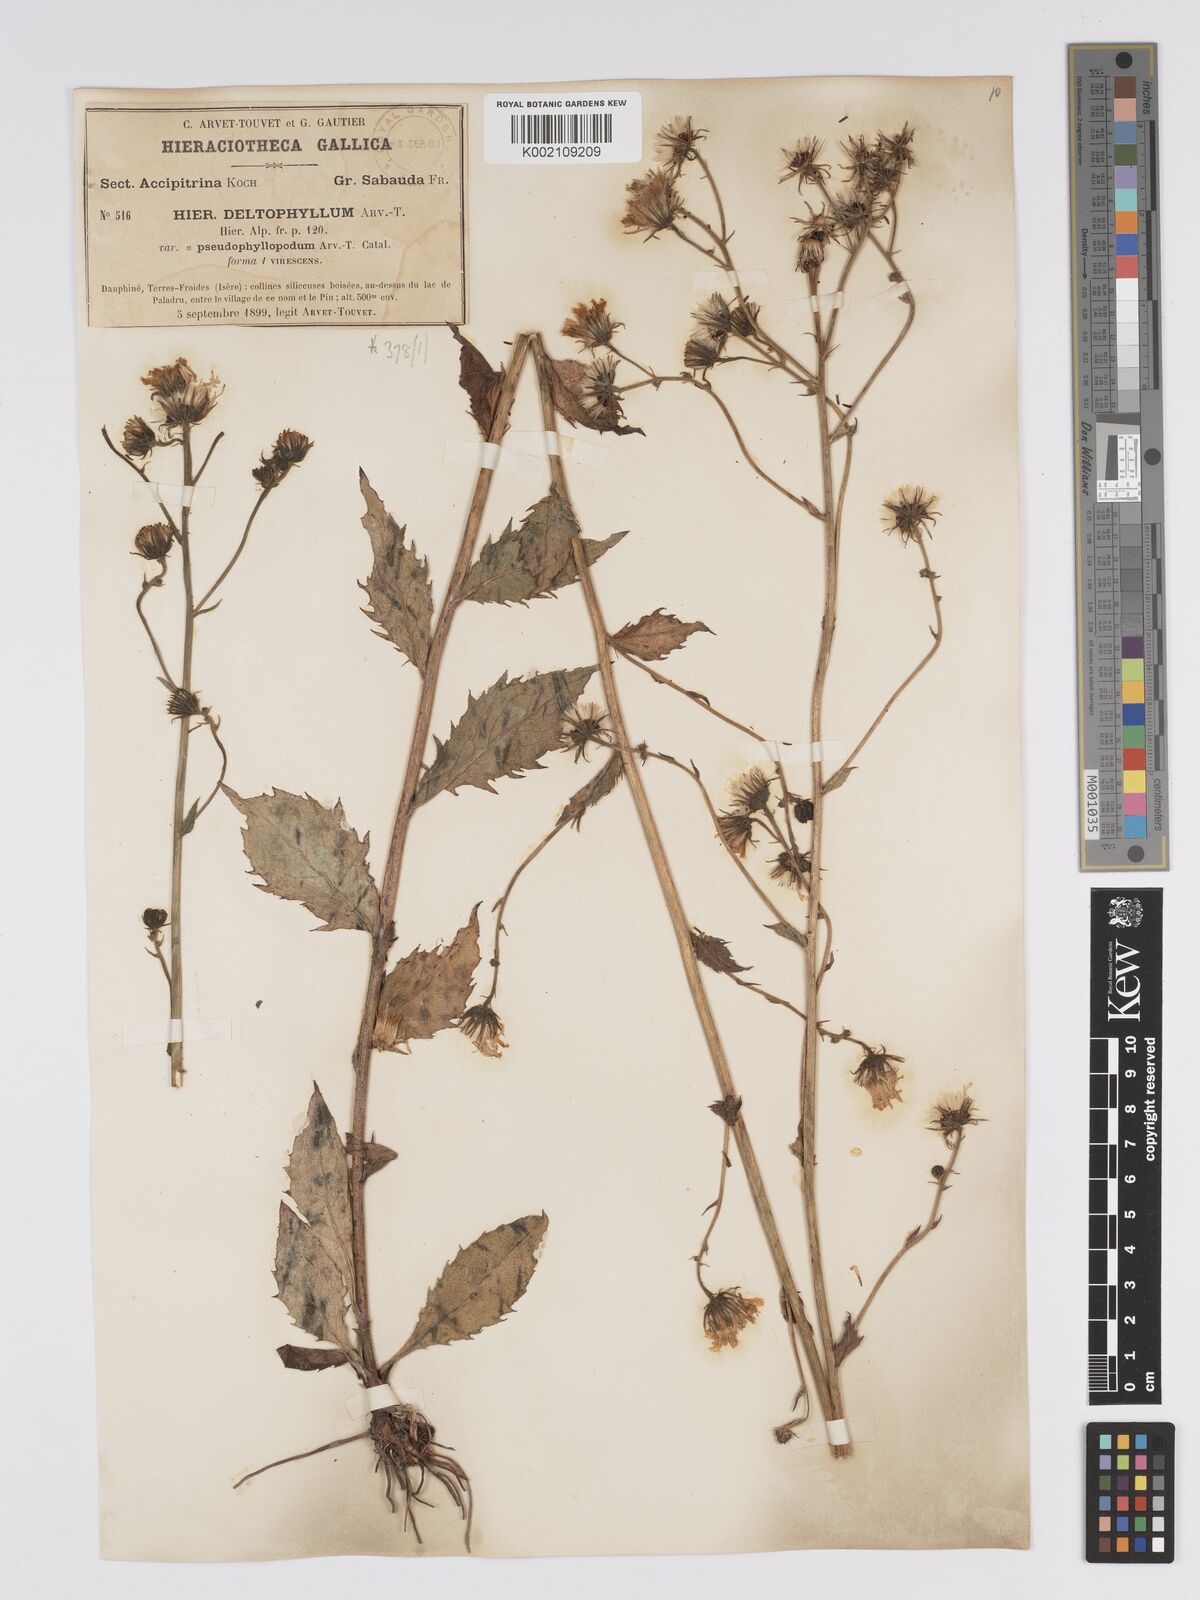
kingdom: Plantae
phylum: Tracheophyta
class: Magnoliopsida
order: Asterales
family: Asteraceae
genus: Hieracium
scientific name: Hieracium flagelliferum
